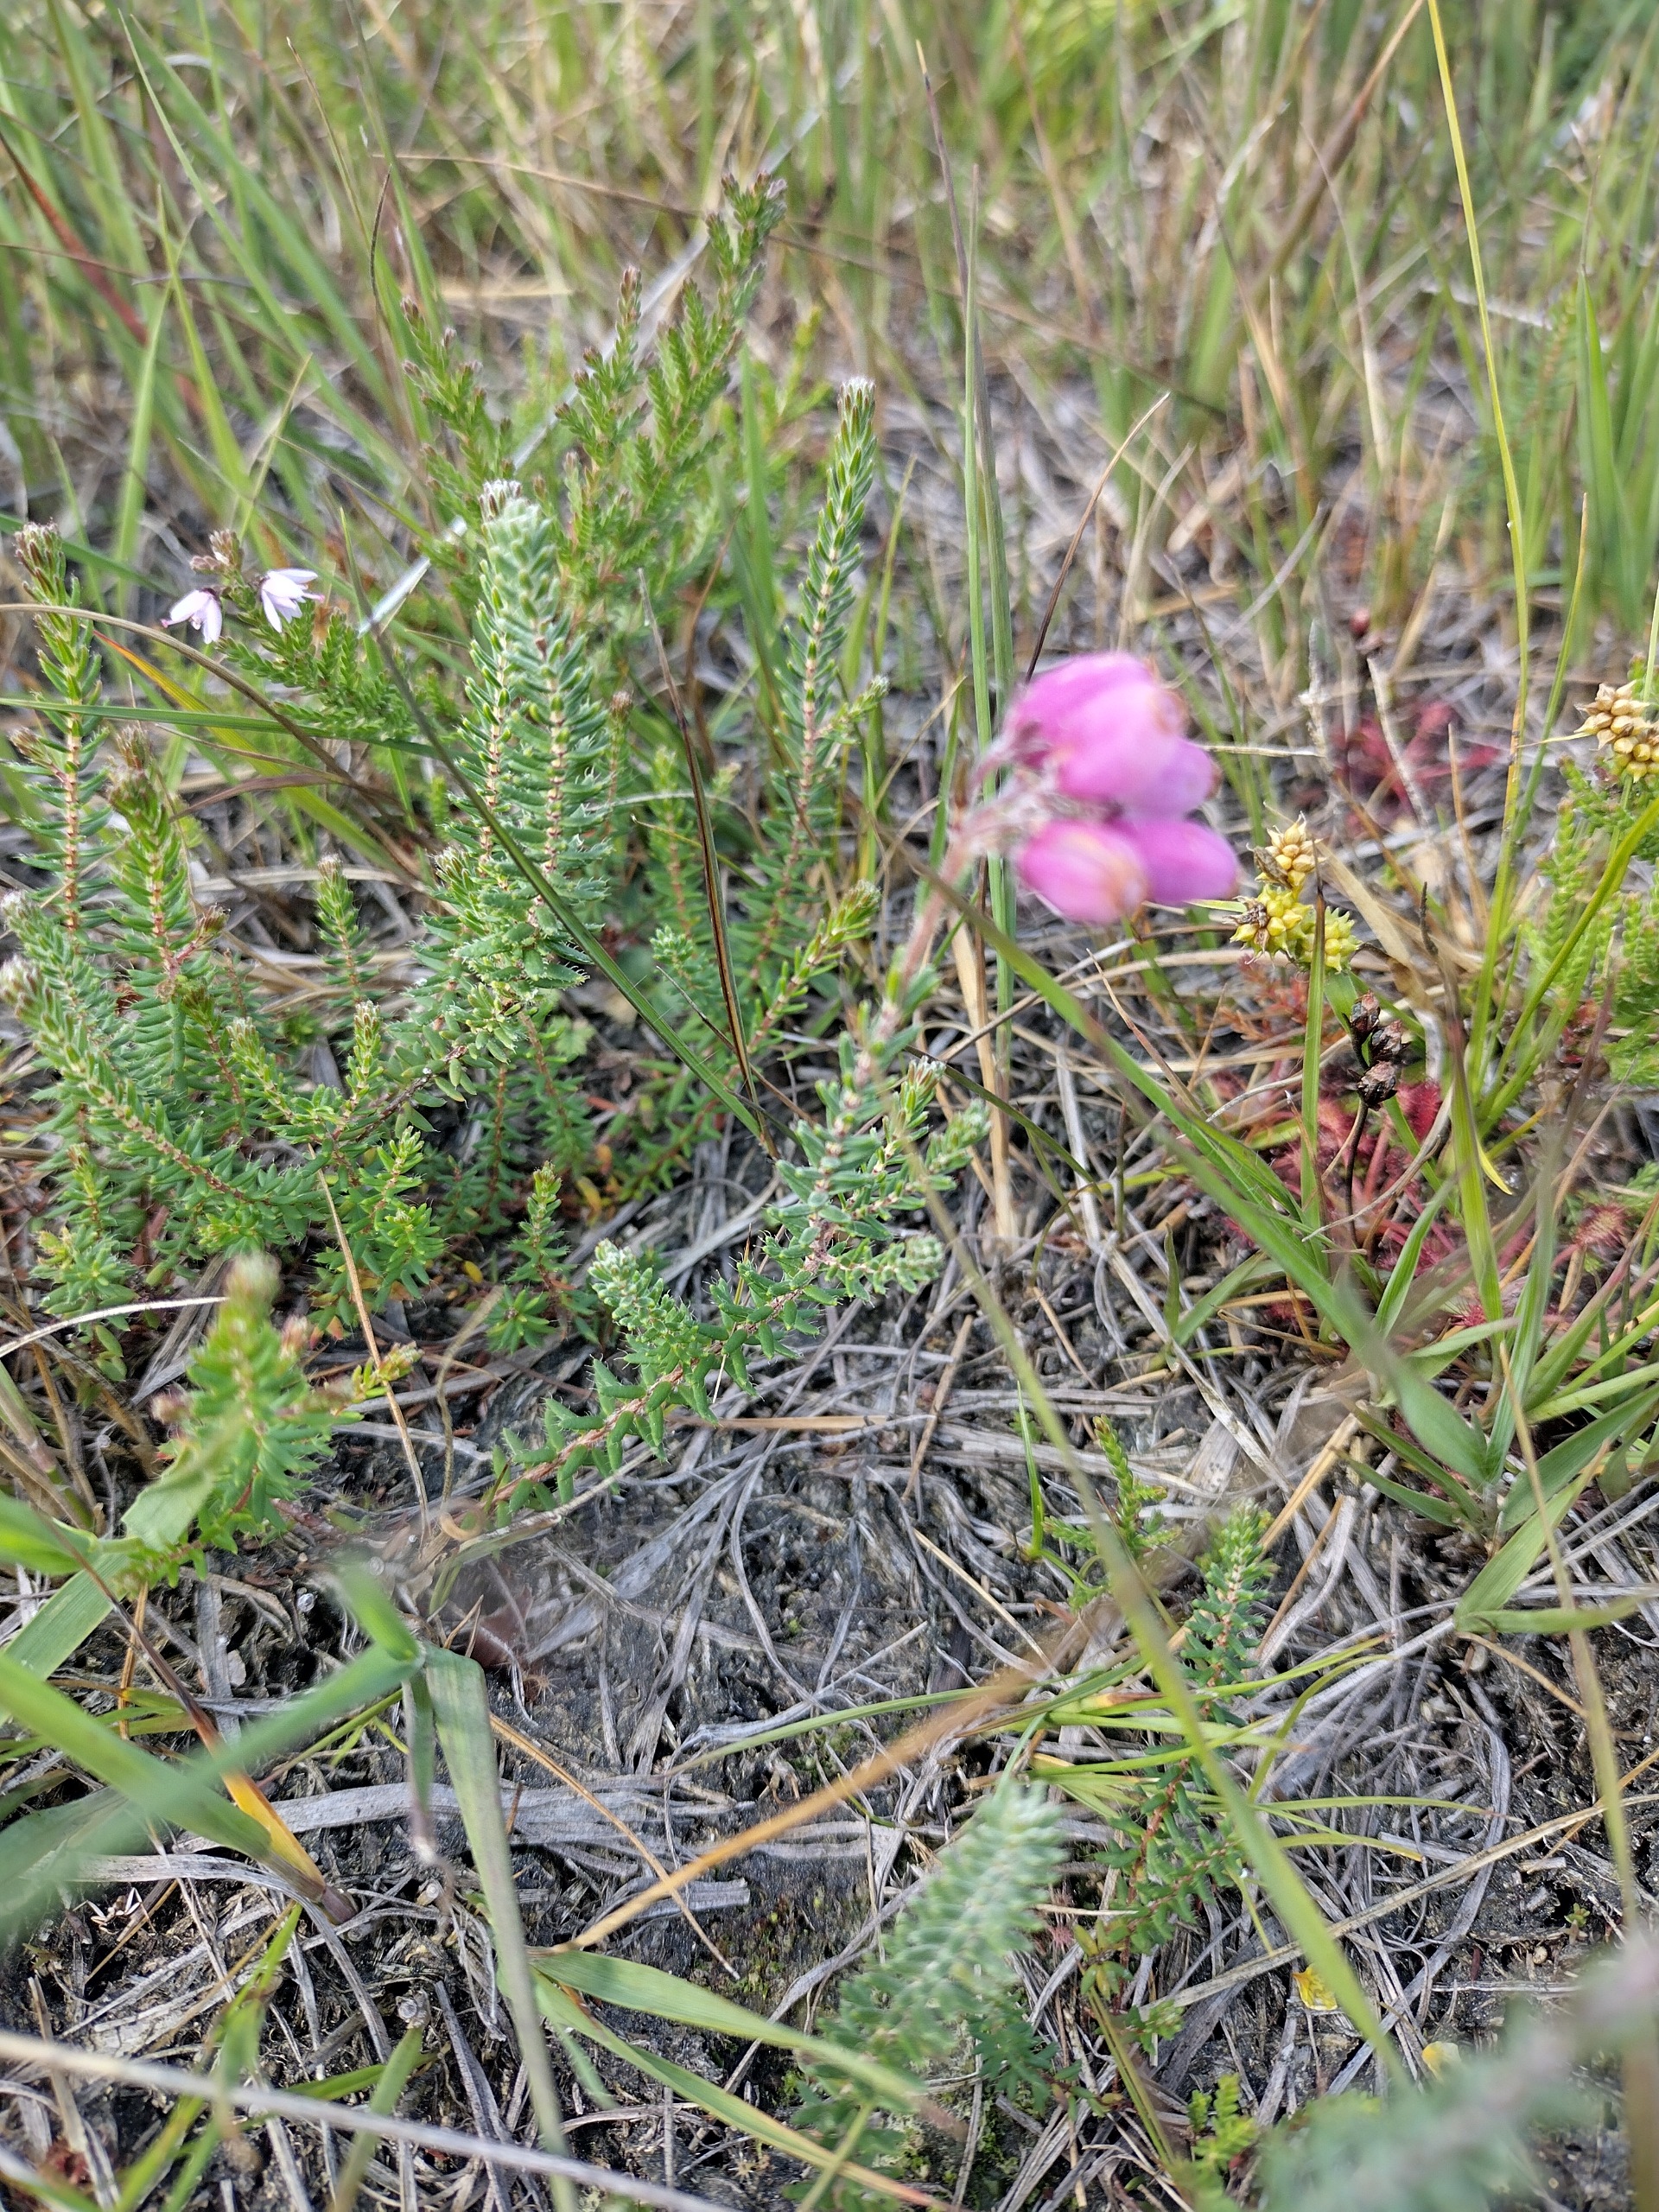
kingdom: Plantae
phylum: Tracheophyta
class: Magnoliopsida
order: Ericales
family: Ericaceae
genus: Erica
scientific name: Erica tetralix
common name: Klokkelyng
